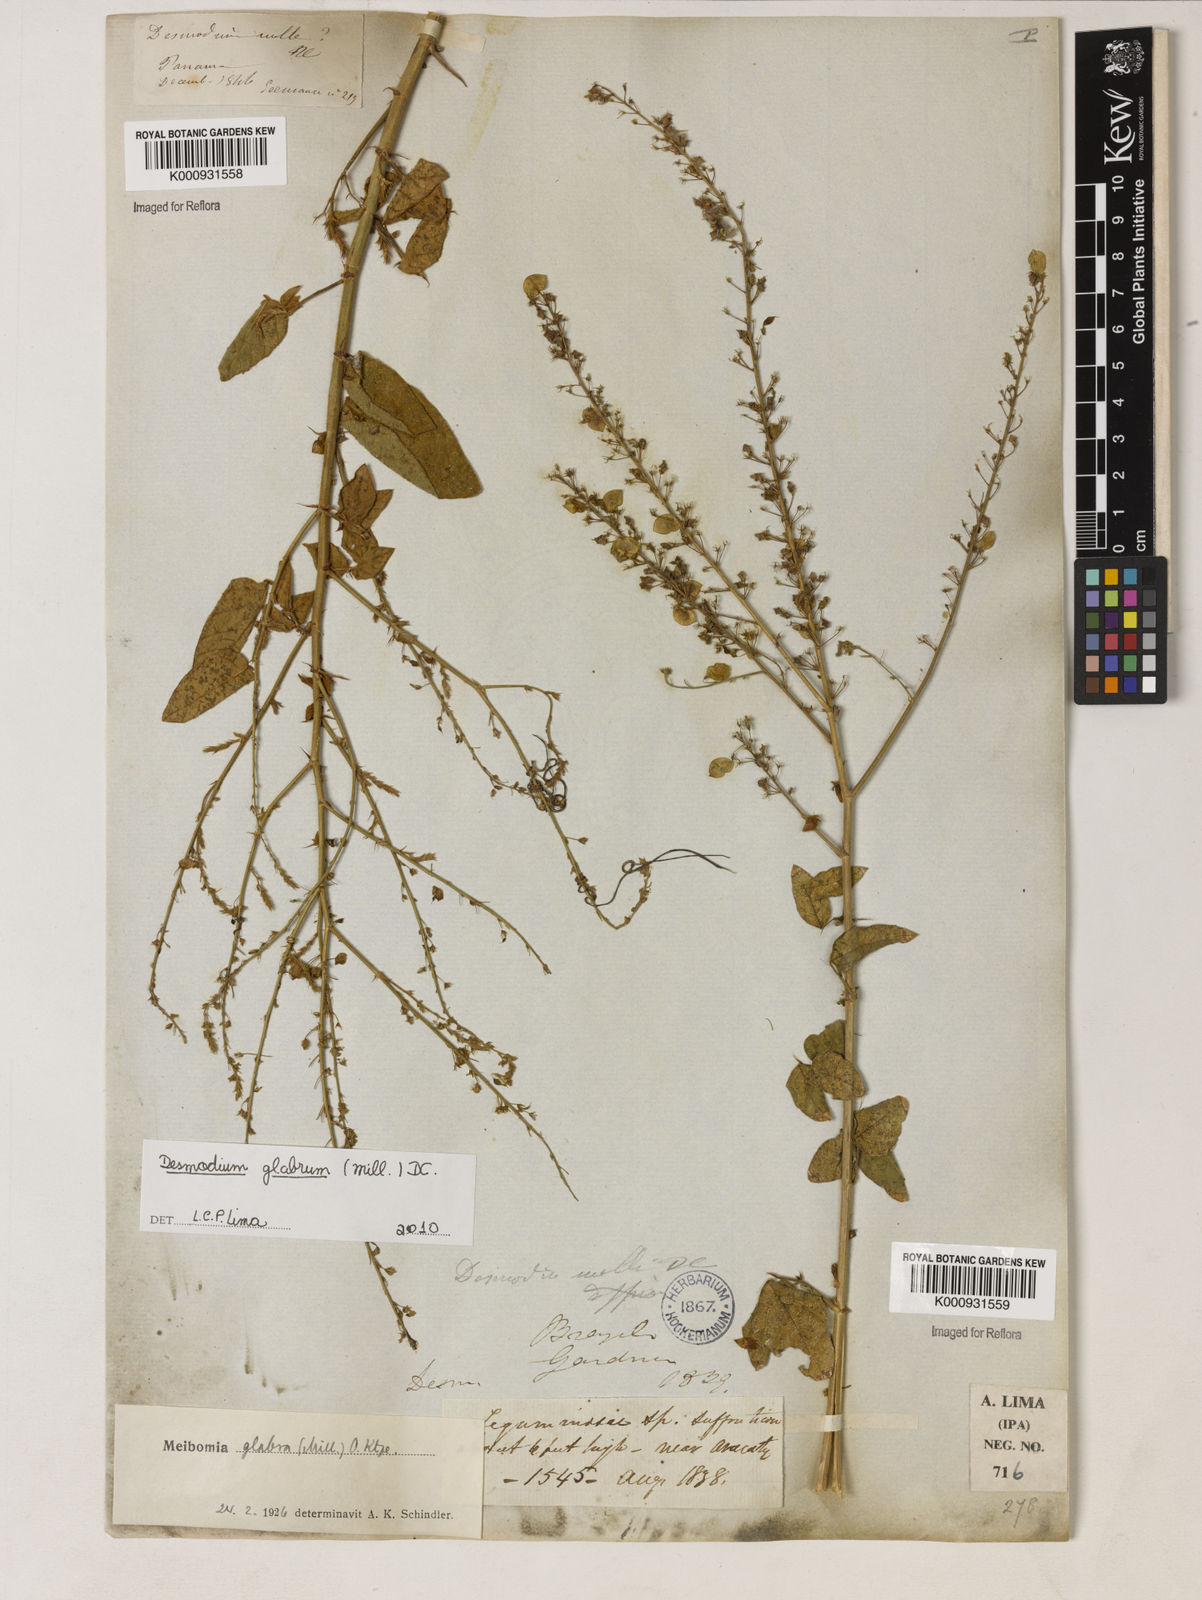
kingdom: Plantae
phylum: Tracheophyta
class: Magnoliopsida
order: Fabales
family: Fabaceae
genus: Desmodium
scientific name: Desmodium glabrum
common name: Zarzabacoa dulce
